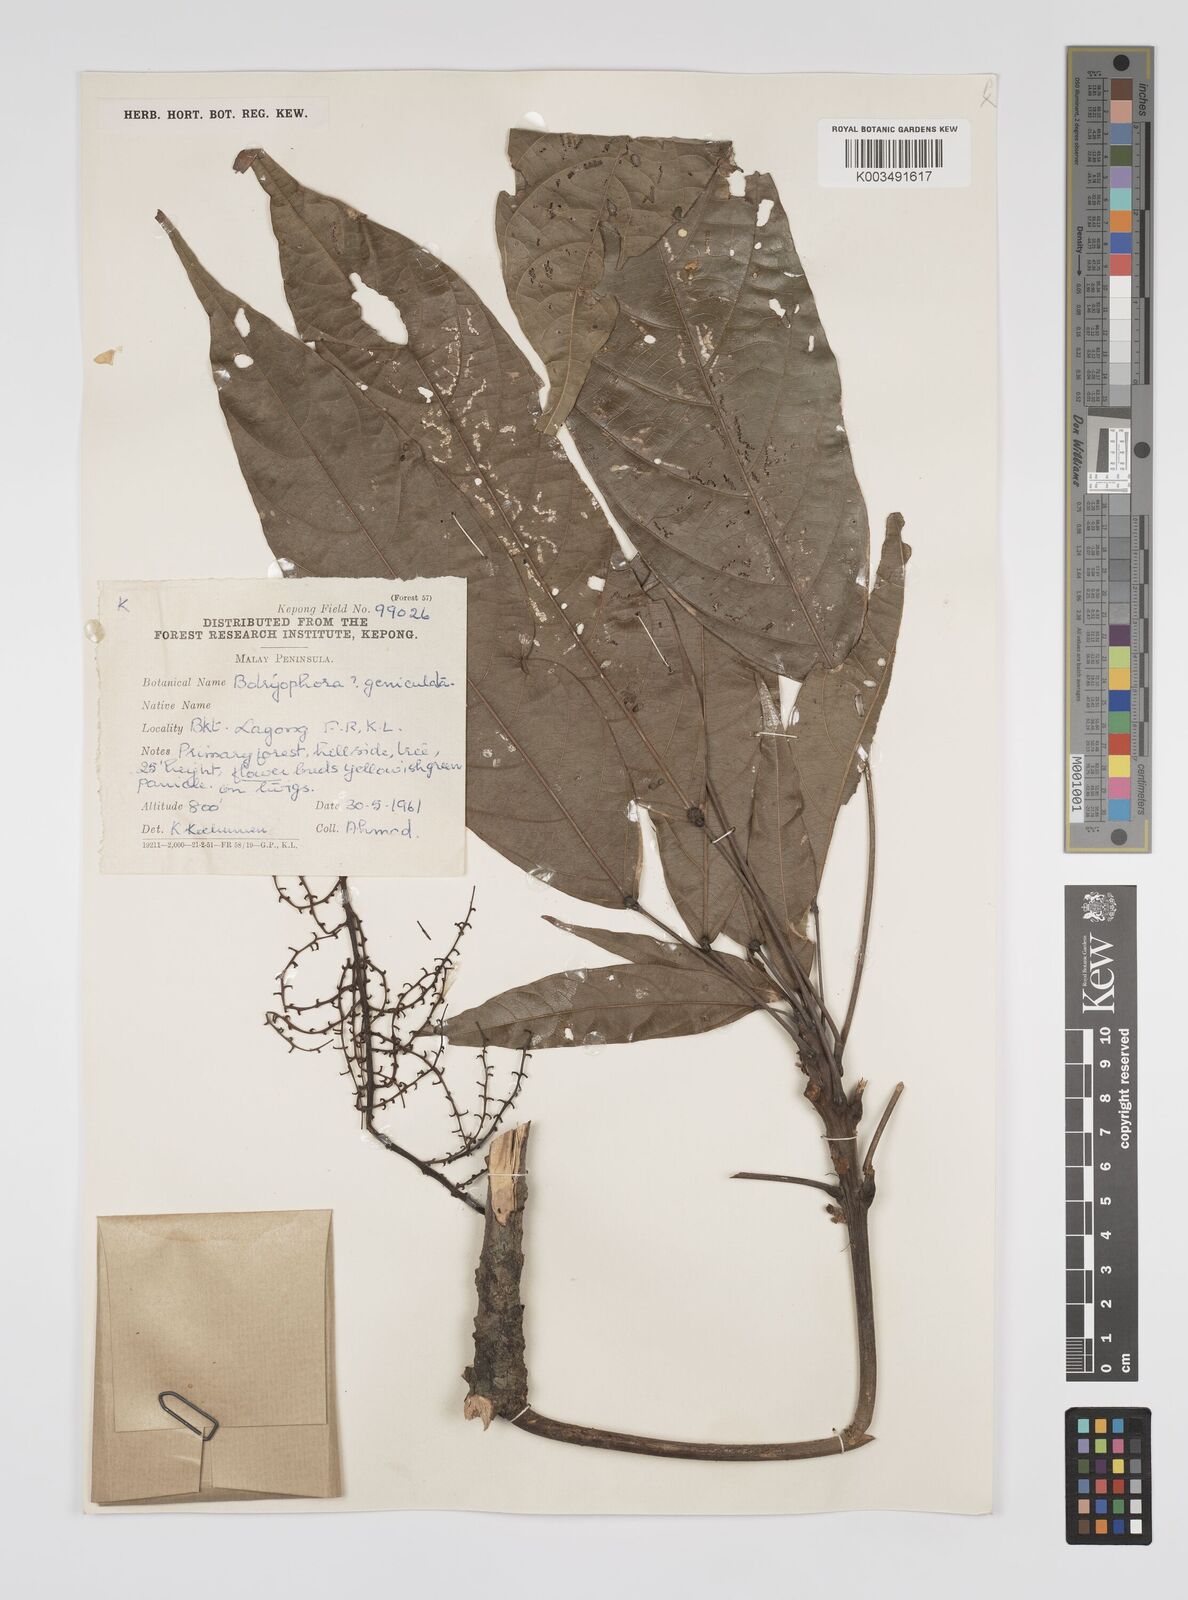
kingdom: Plantae
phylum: Tracheophyta
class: Magnoliopsida
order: Malpighiales
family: Euphorbiaceae
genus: Botryophora
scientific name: Botryophora geniculata
